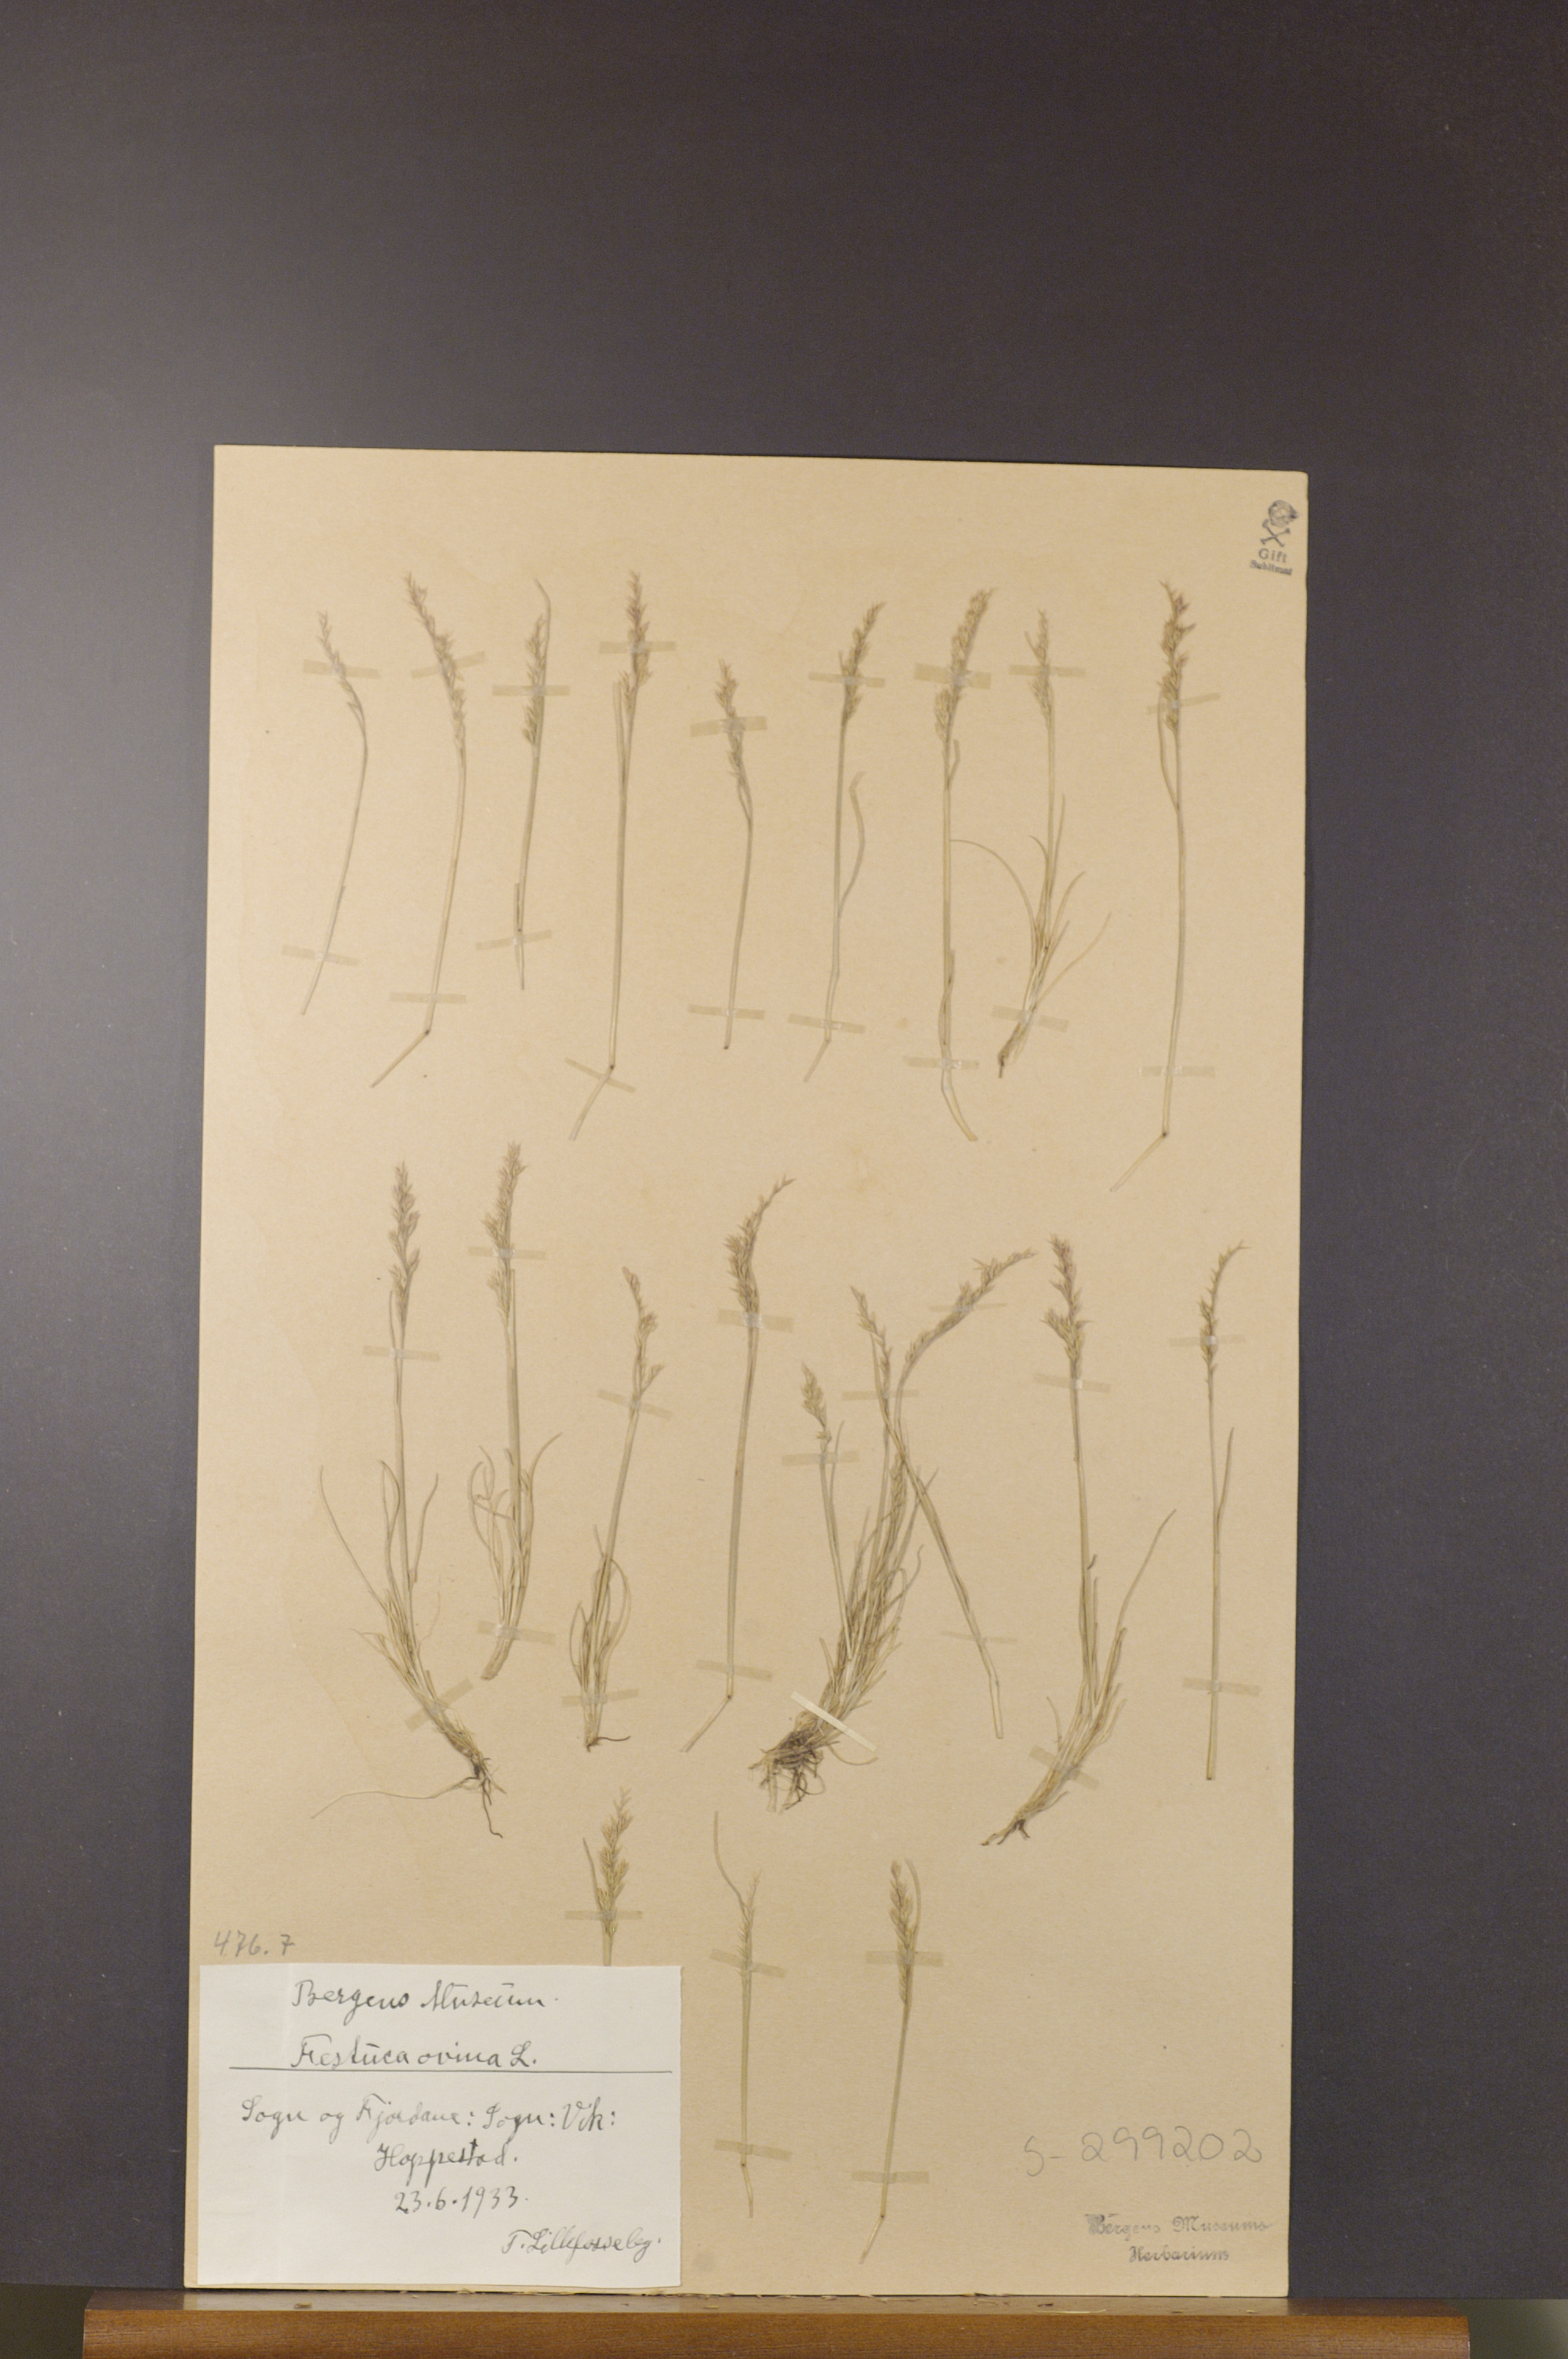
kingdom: Plantae
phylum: Tracheophyta
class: Liliopsida
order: Poales
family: Poaceae
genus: Festuca
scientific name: Festuca ovina
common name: Sheep fescue
